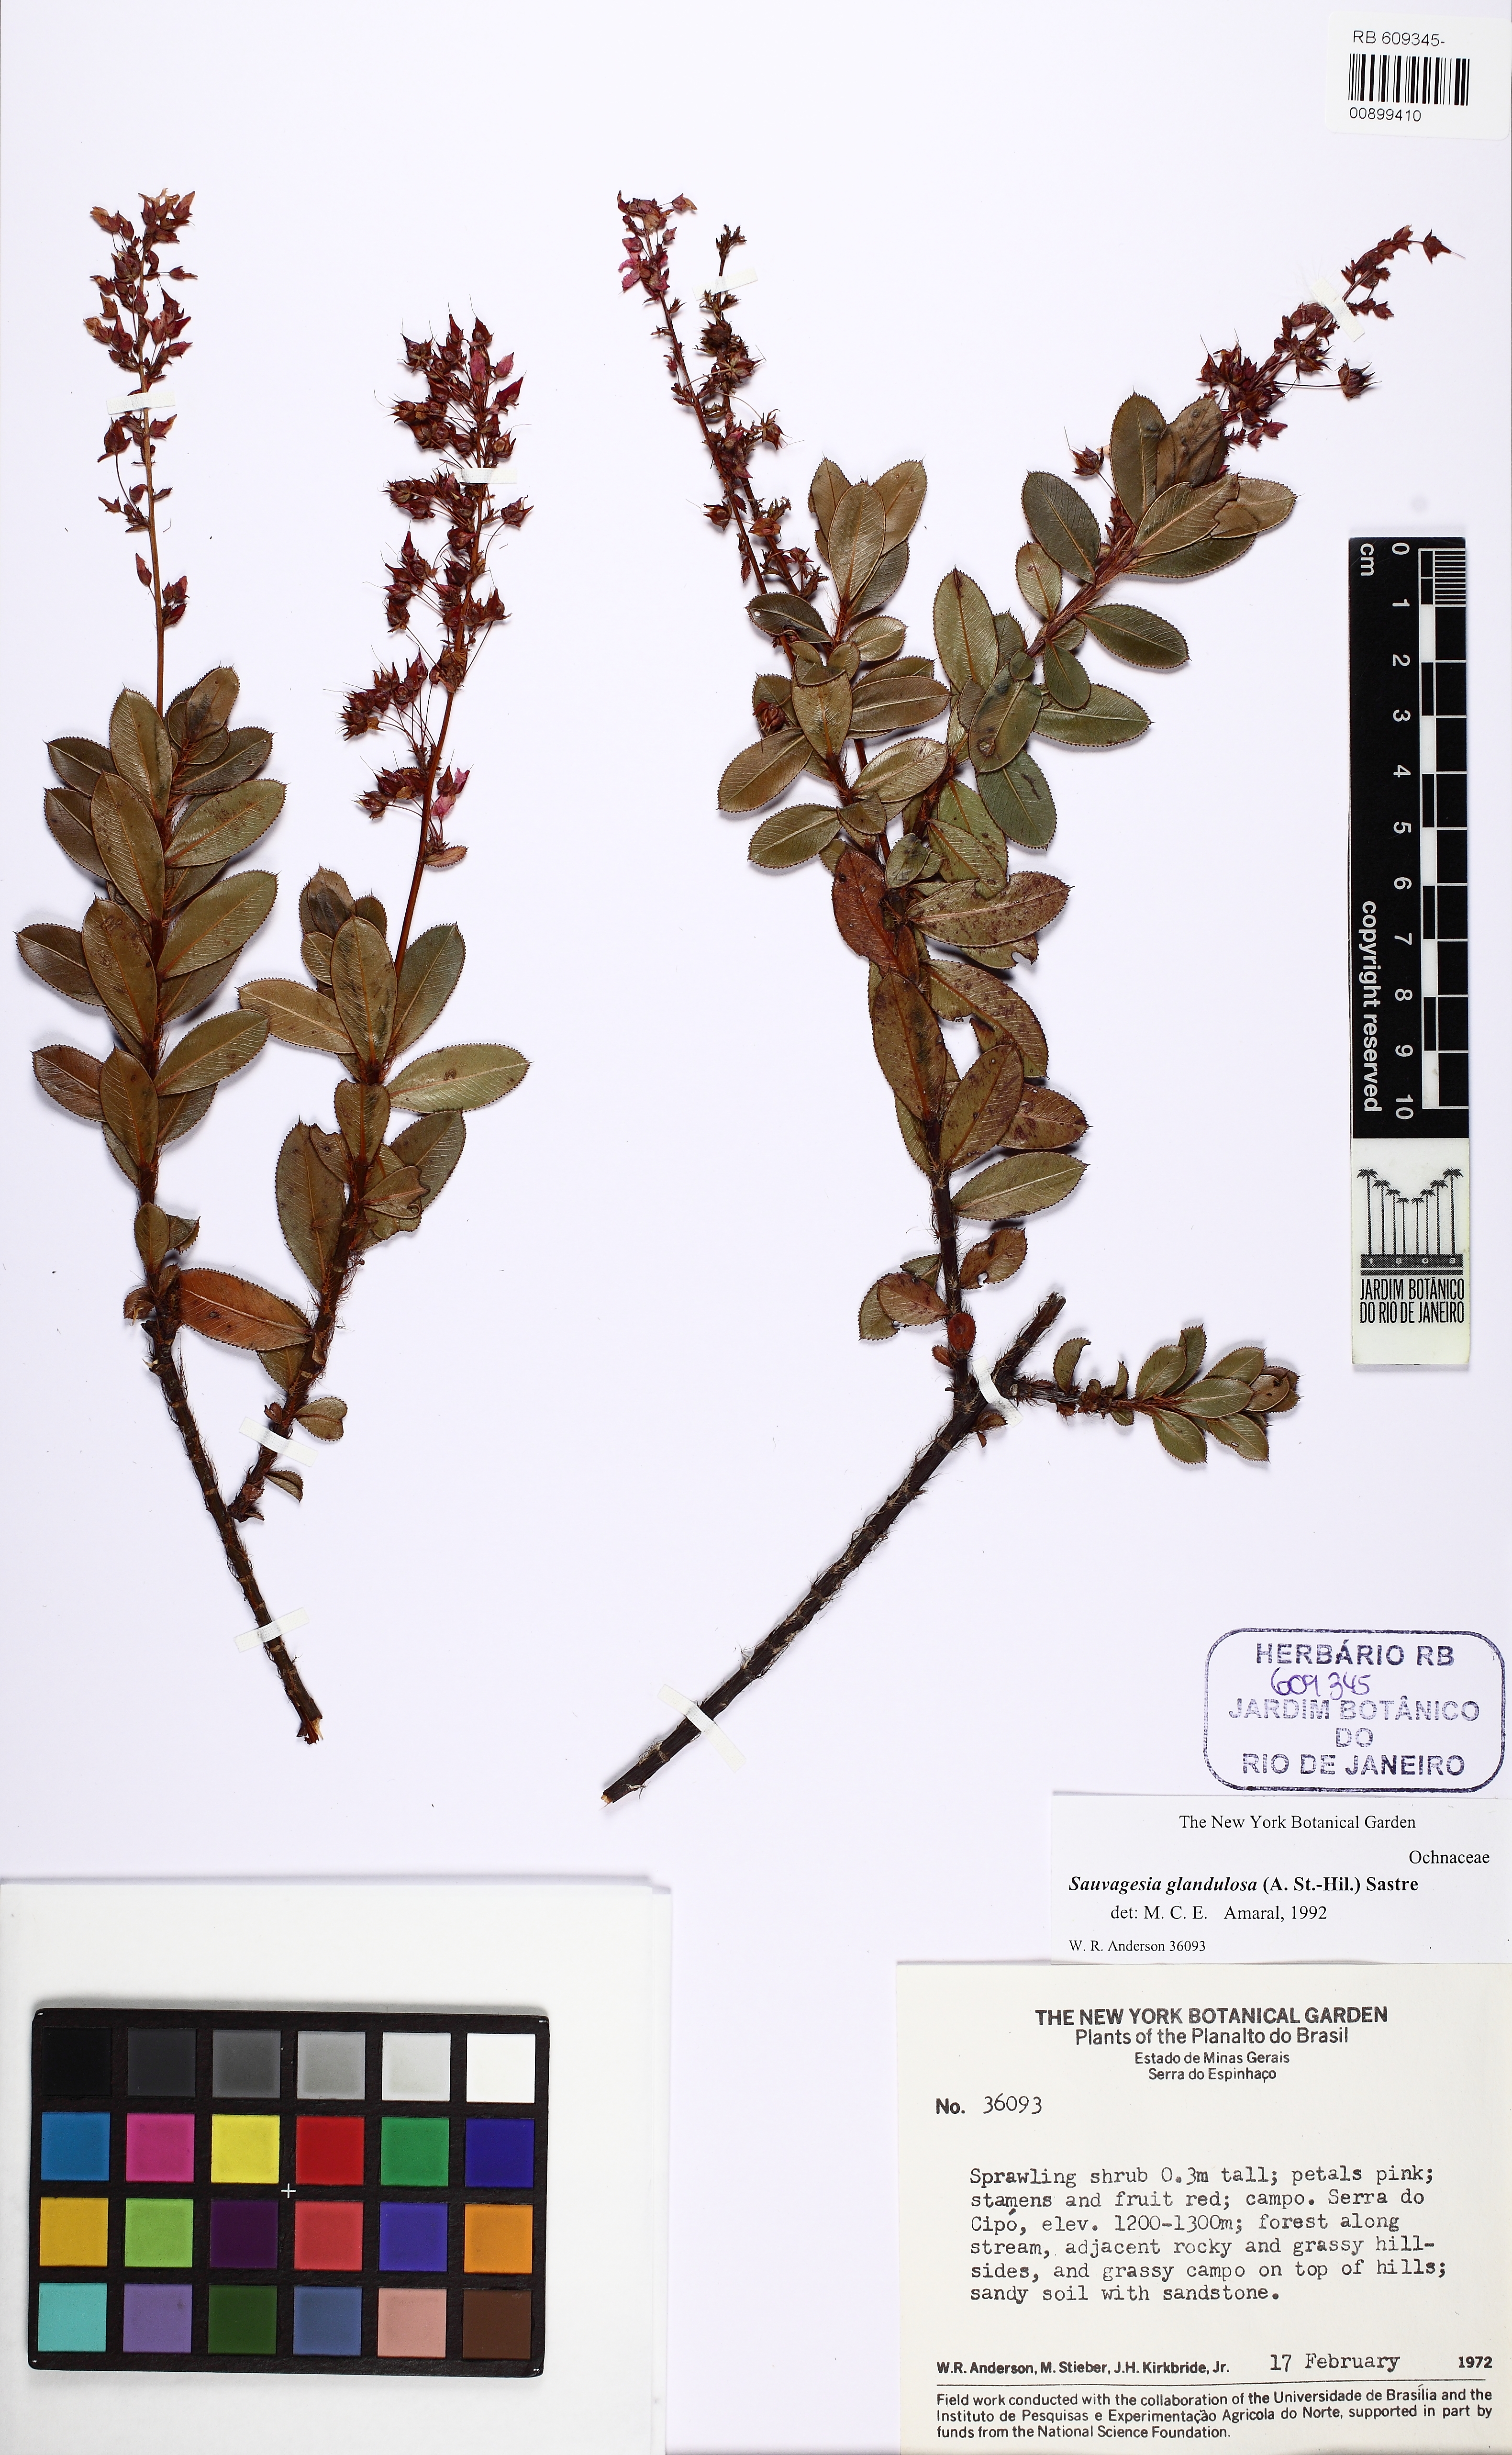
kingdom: Plantae
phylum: Tracheophyta
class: Magnoliopsida
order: Malpighiales
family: Ochnaceae
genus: Sauvagesia
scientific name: Sauvagesia
